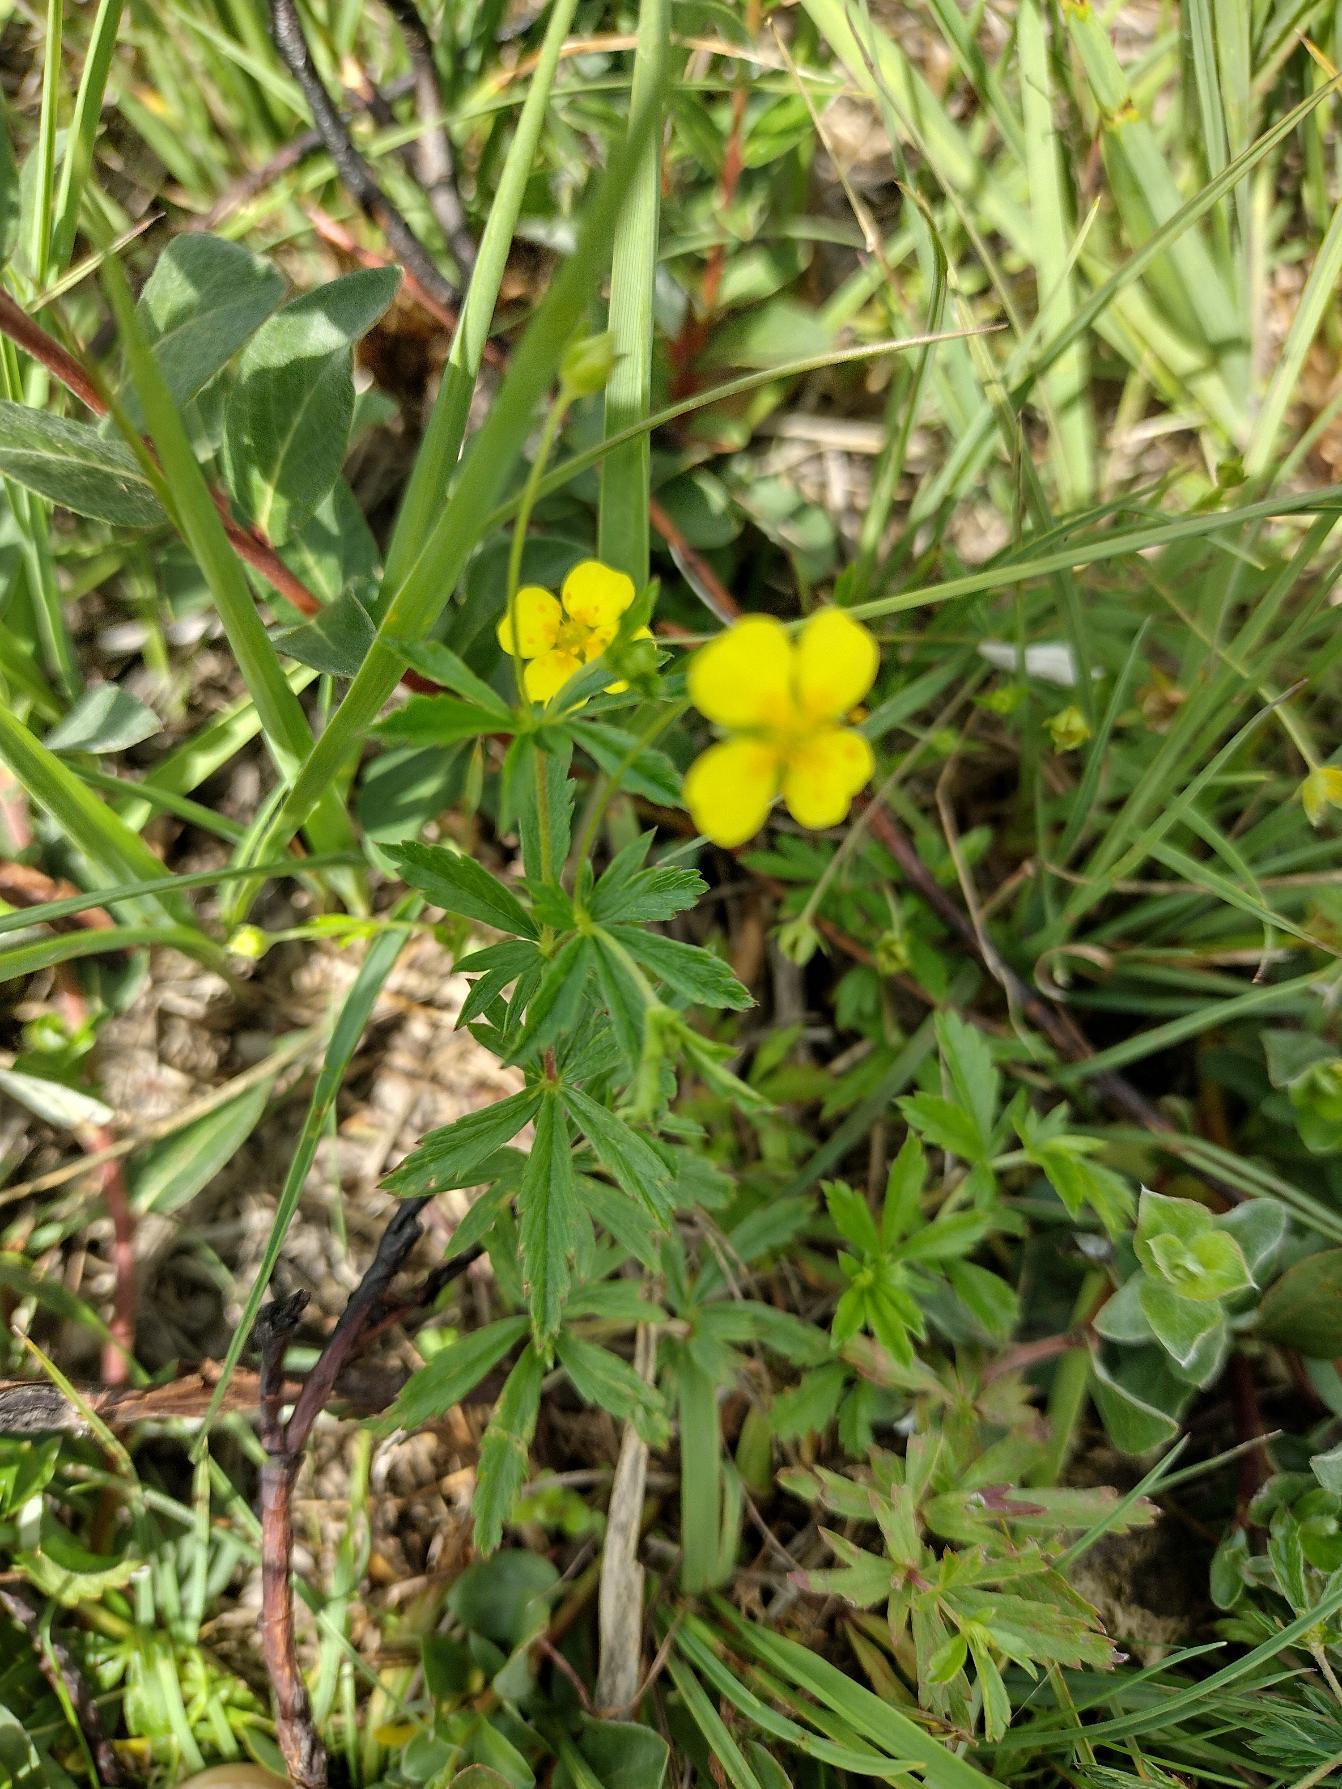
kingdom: Plantae
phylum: Tracheophyta
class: Magnoliopsida
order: Rosales
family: Rosaceae
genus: Potentilla
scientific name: Potentilla erecta
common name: Tormentil
